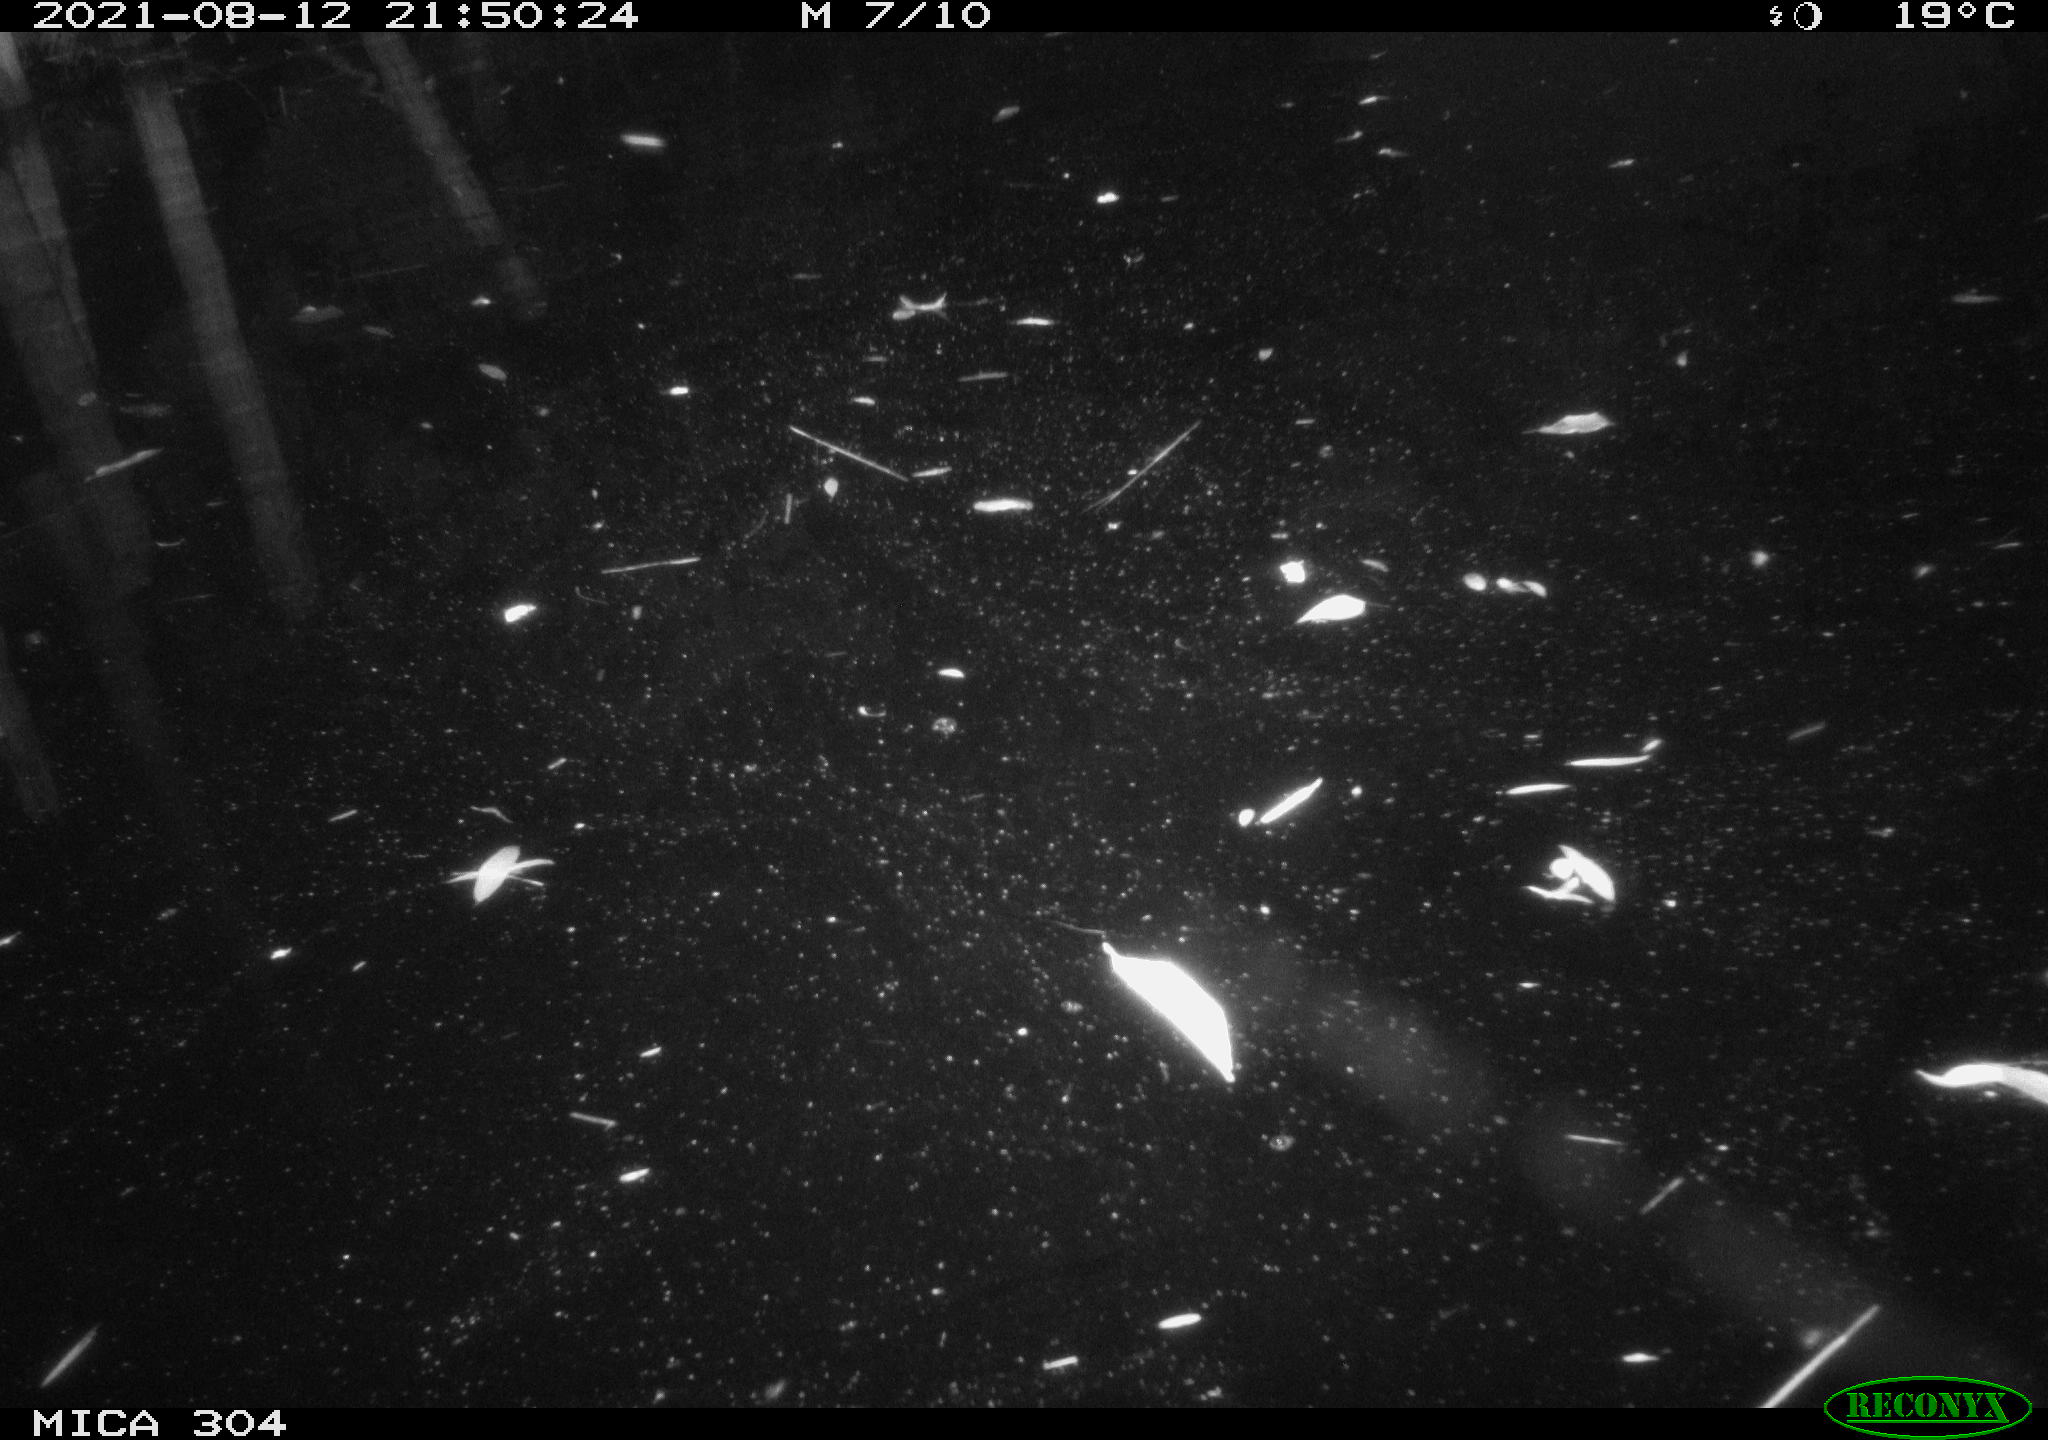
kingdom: Animalia
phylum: Chordata
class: Aves
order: Anseriformes
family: Anatidae
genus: Mareca
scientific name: Mareca strepera
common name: Gadwall
